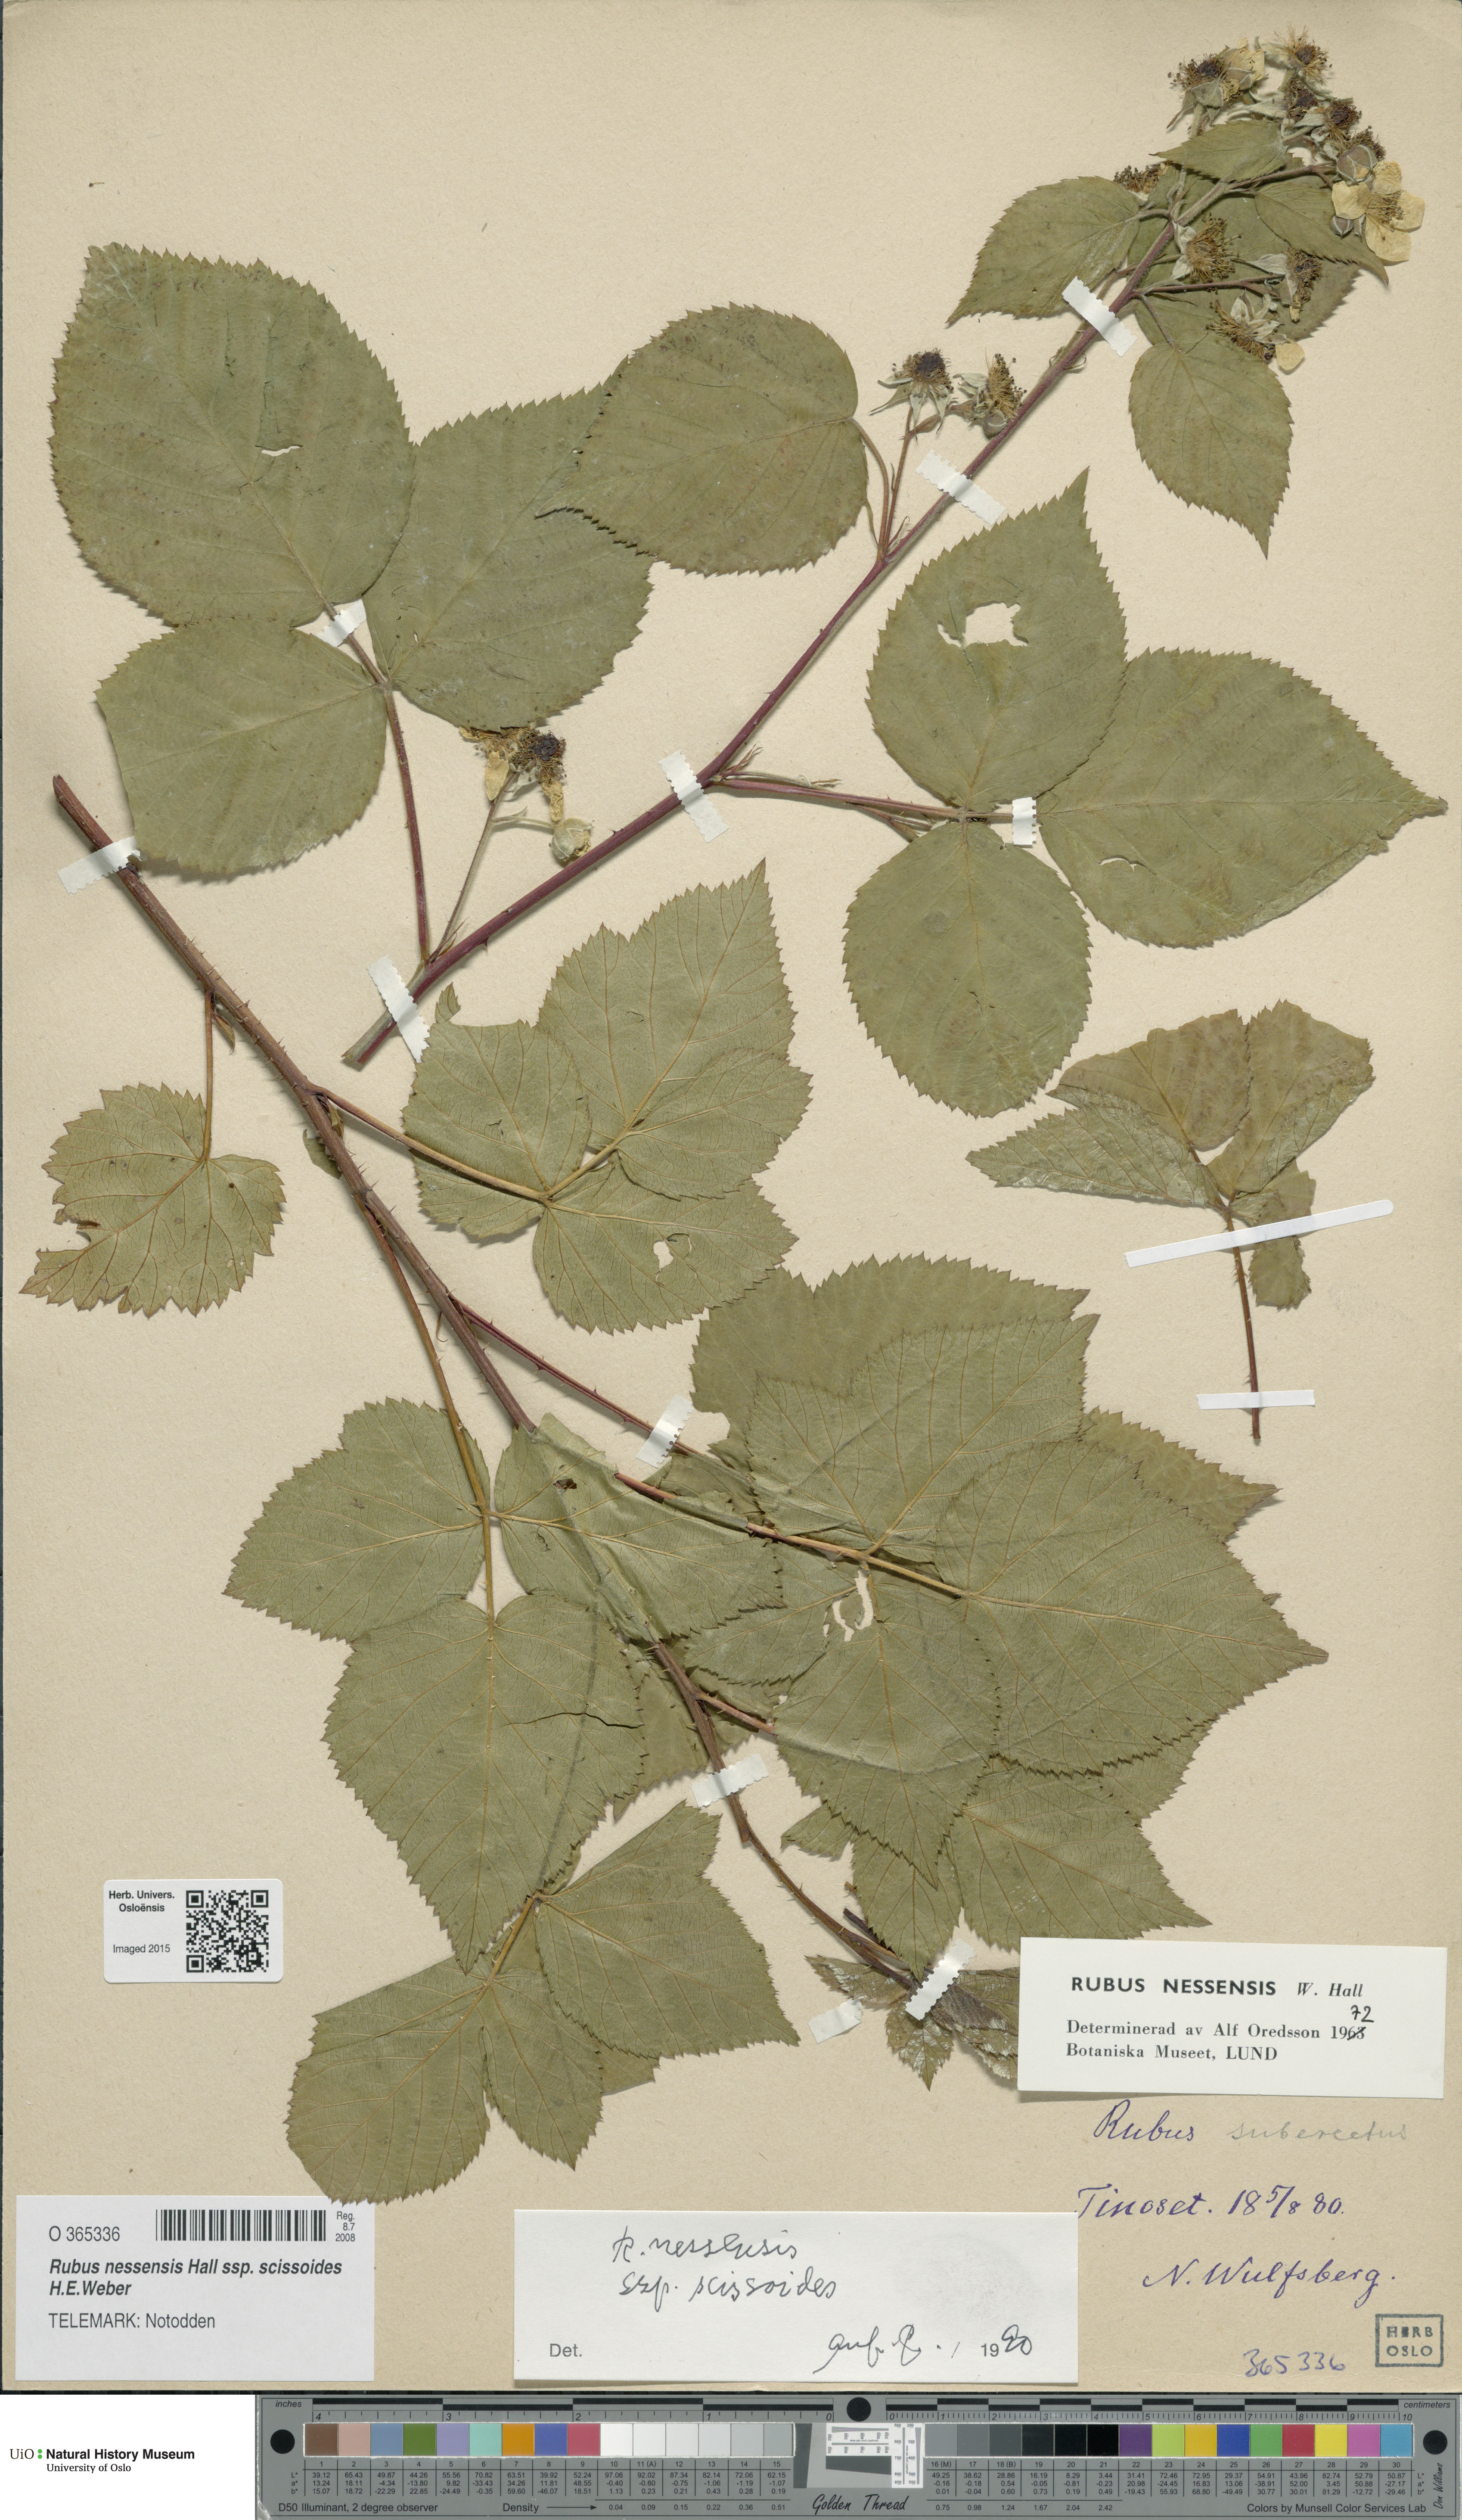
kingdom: Plantae
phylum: Tracheophyta
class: Magnoliopsida
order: Rosales
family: Rosaceae
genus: Rubus
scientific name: Rubus scissus
